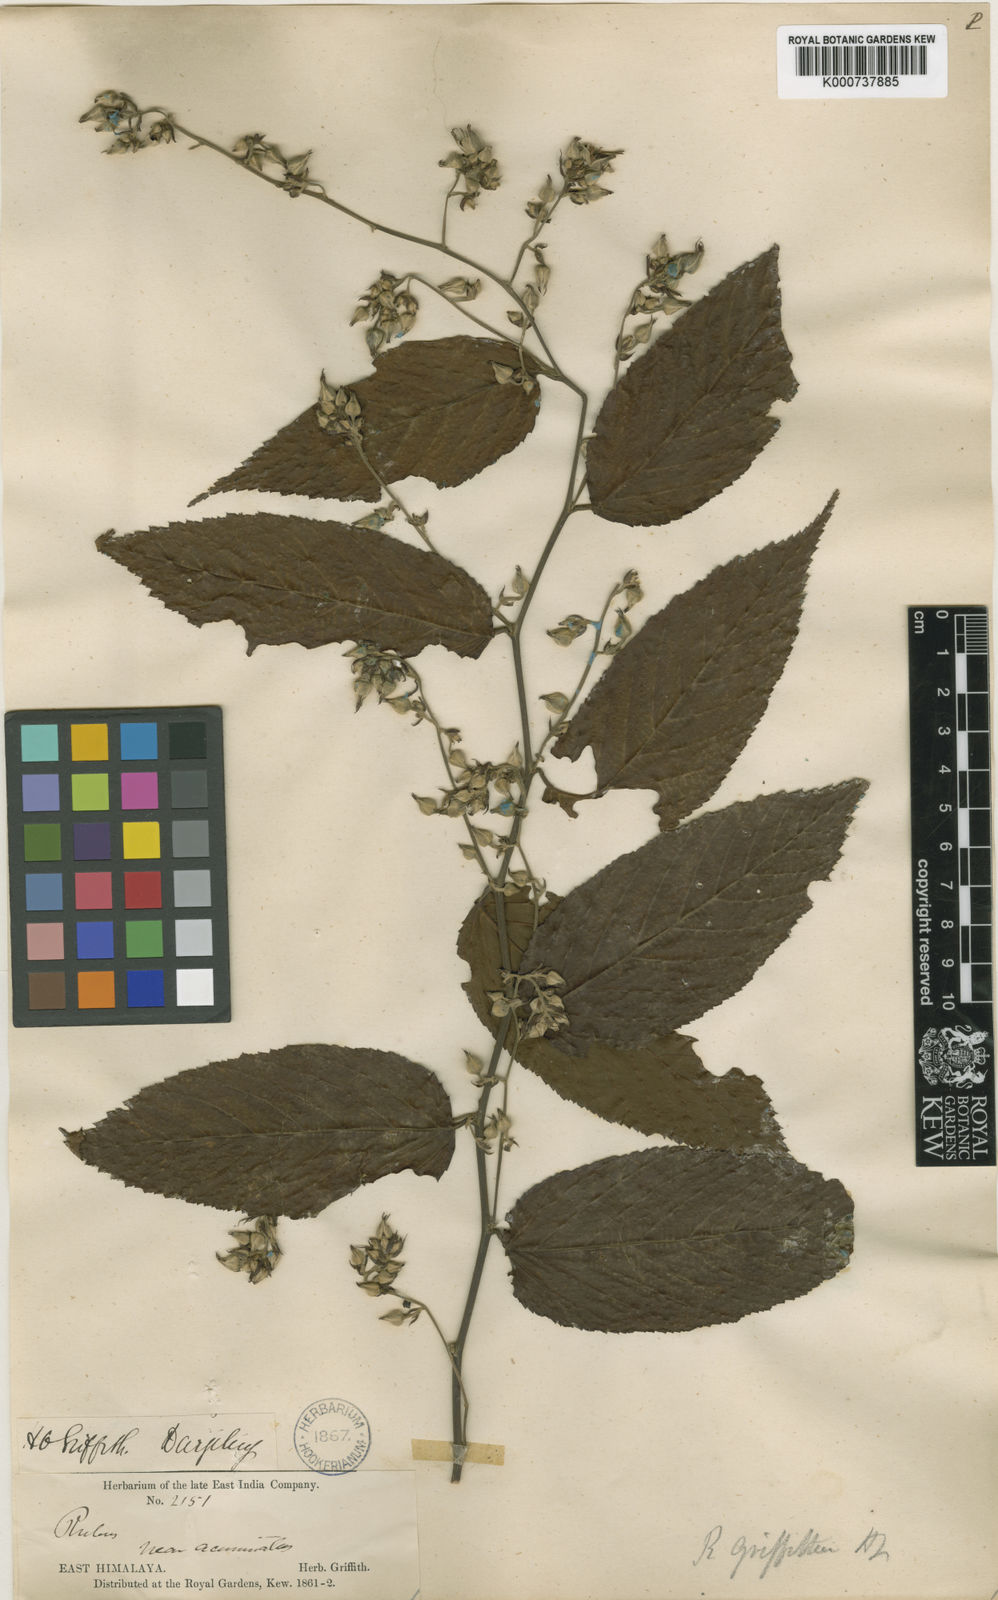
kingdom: Plantae
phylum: Tracheophyta
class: Magnoliopsida
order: Rosales
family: Rosaceae
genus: Rubus
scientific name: Rubus griffithii
